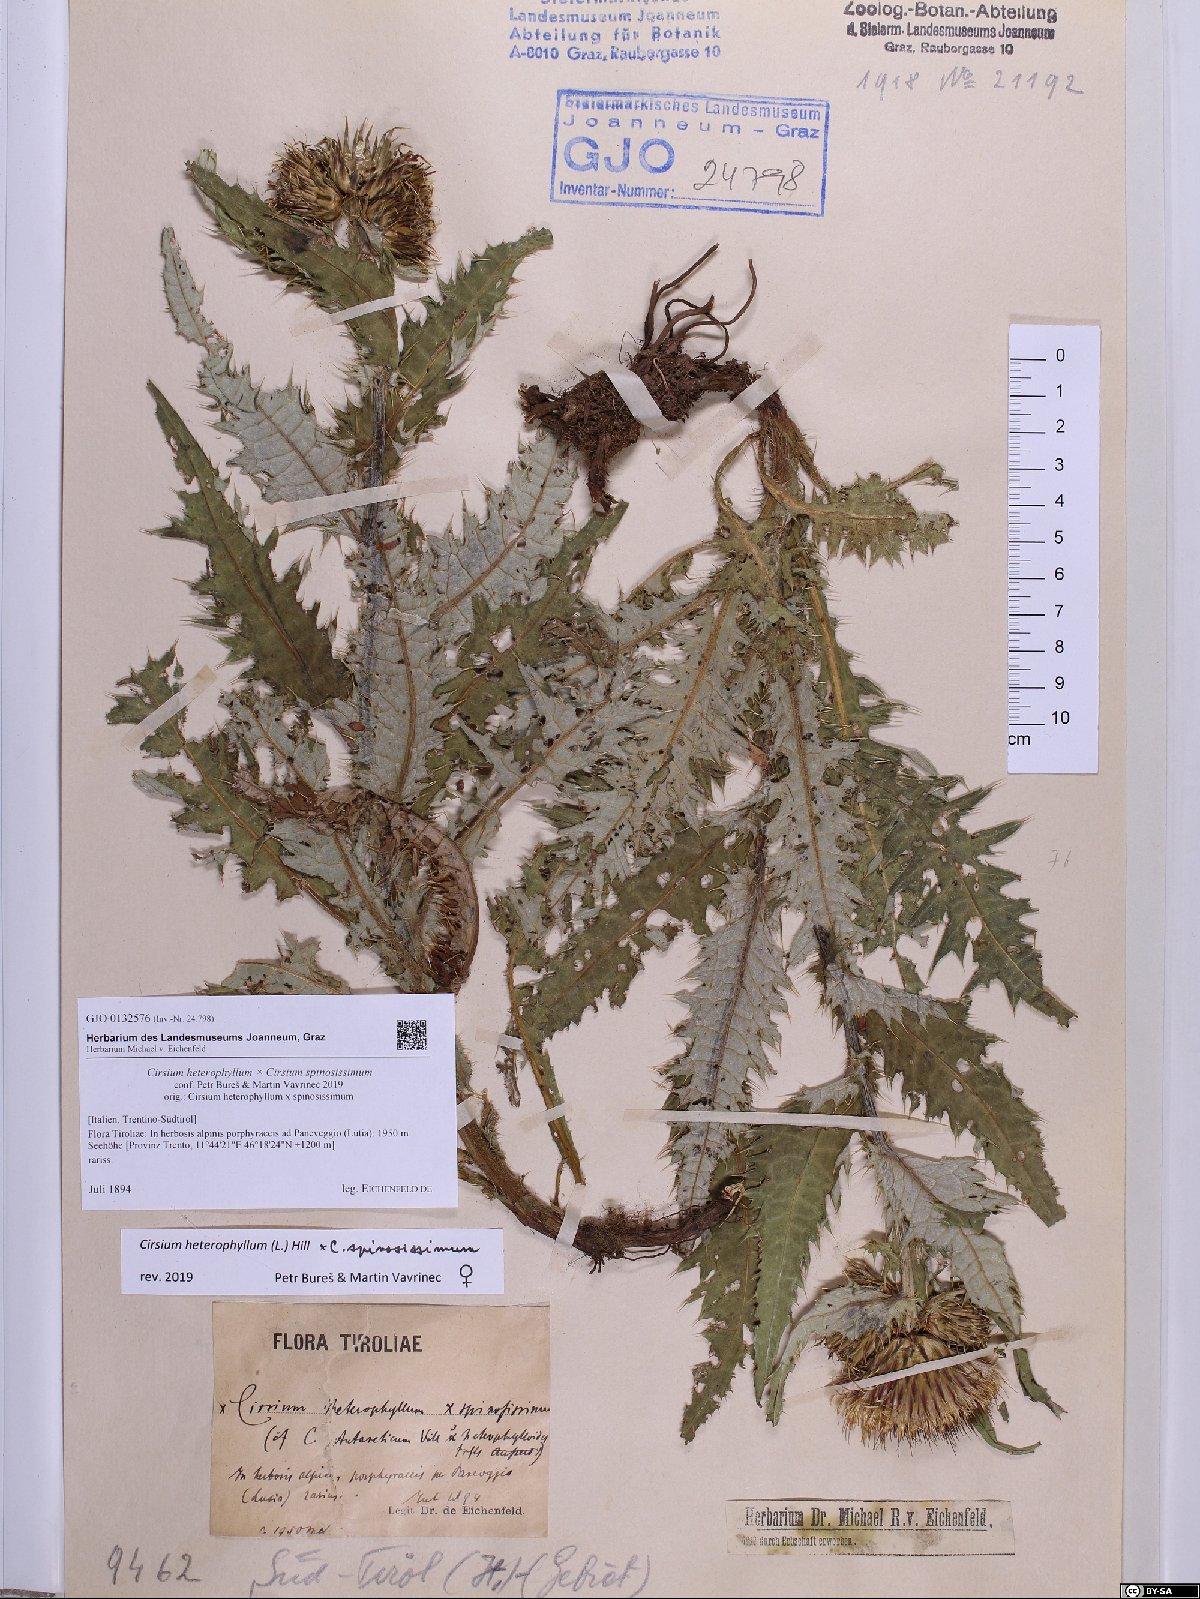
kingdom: Plantae
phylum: Tracheophyta
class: Magnoliopsida
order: Asterales
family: Asteraceae
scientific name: Asteraceae
